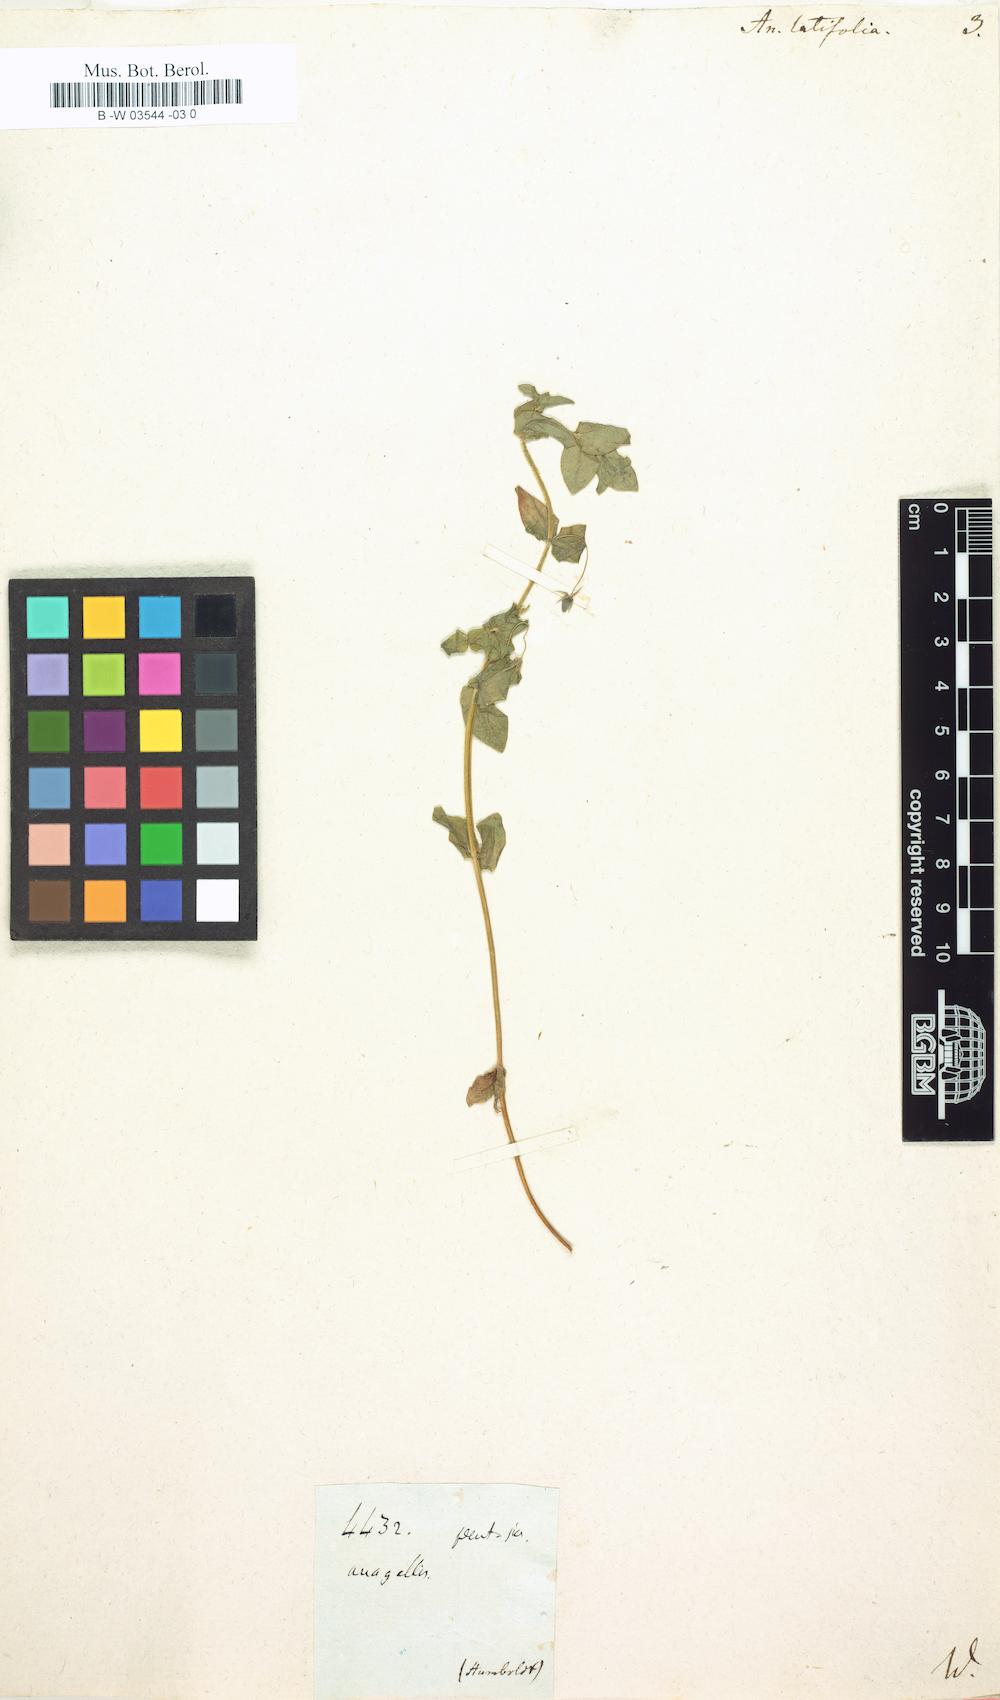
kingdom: Plantae
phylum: Tracheophyta
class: Magnoliopsida
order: Ericales
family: Primulaceae
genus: Lysimachia
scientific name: Lysimachia loeflingii
